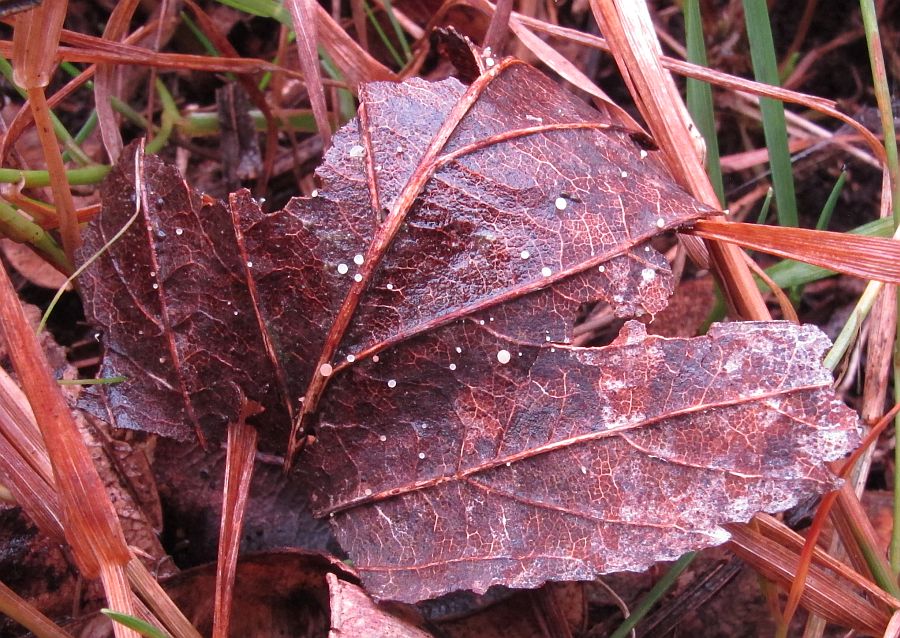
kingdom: Fungi
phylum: Ascomycota
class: Leotiomycetes
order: Helotiales
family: Helotiaceae
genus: Hymenoscyphus
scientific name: Hymenoscyphus caudatus
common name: blad-stilkskive
